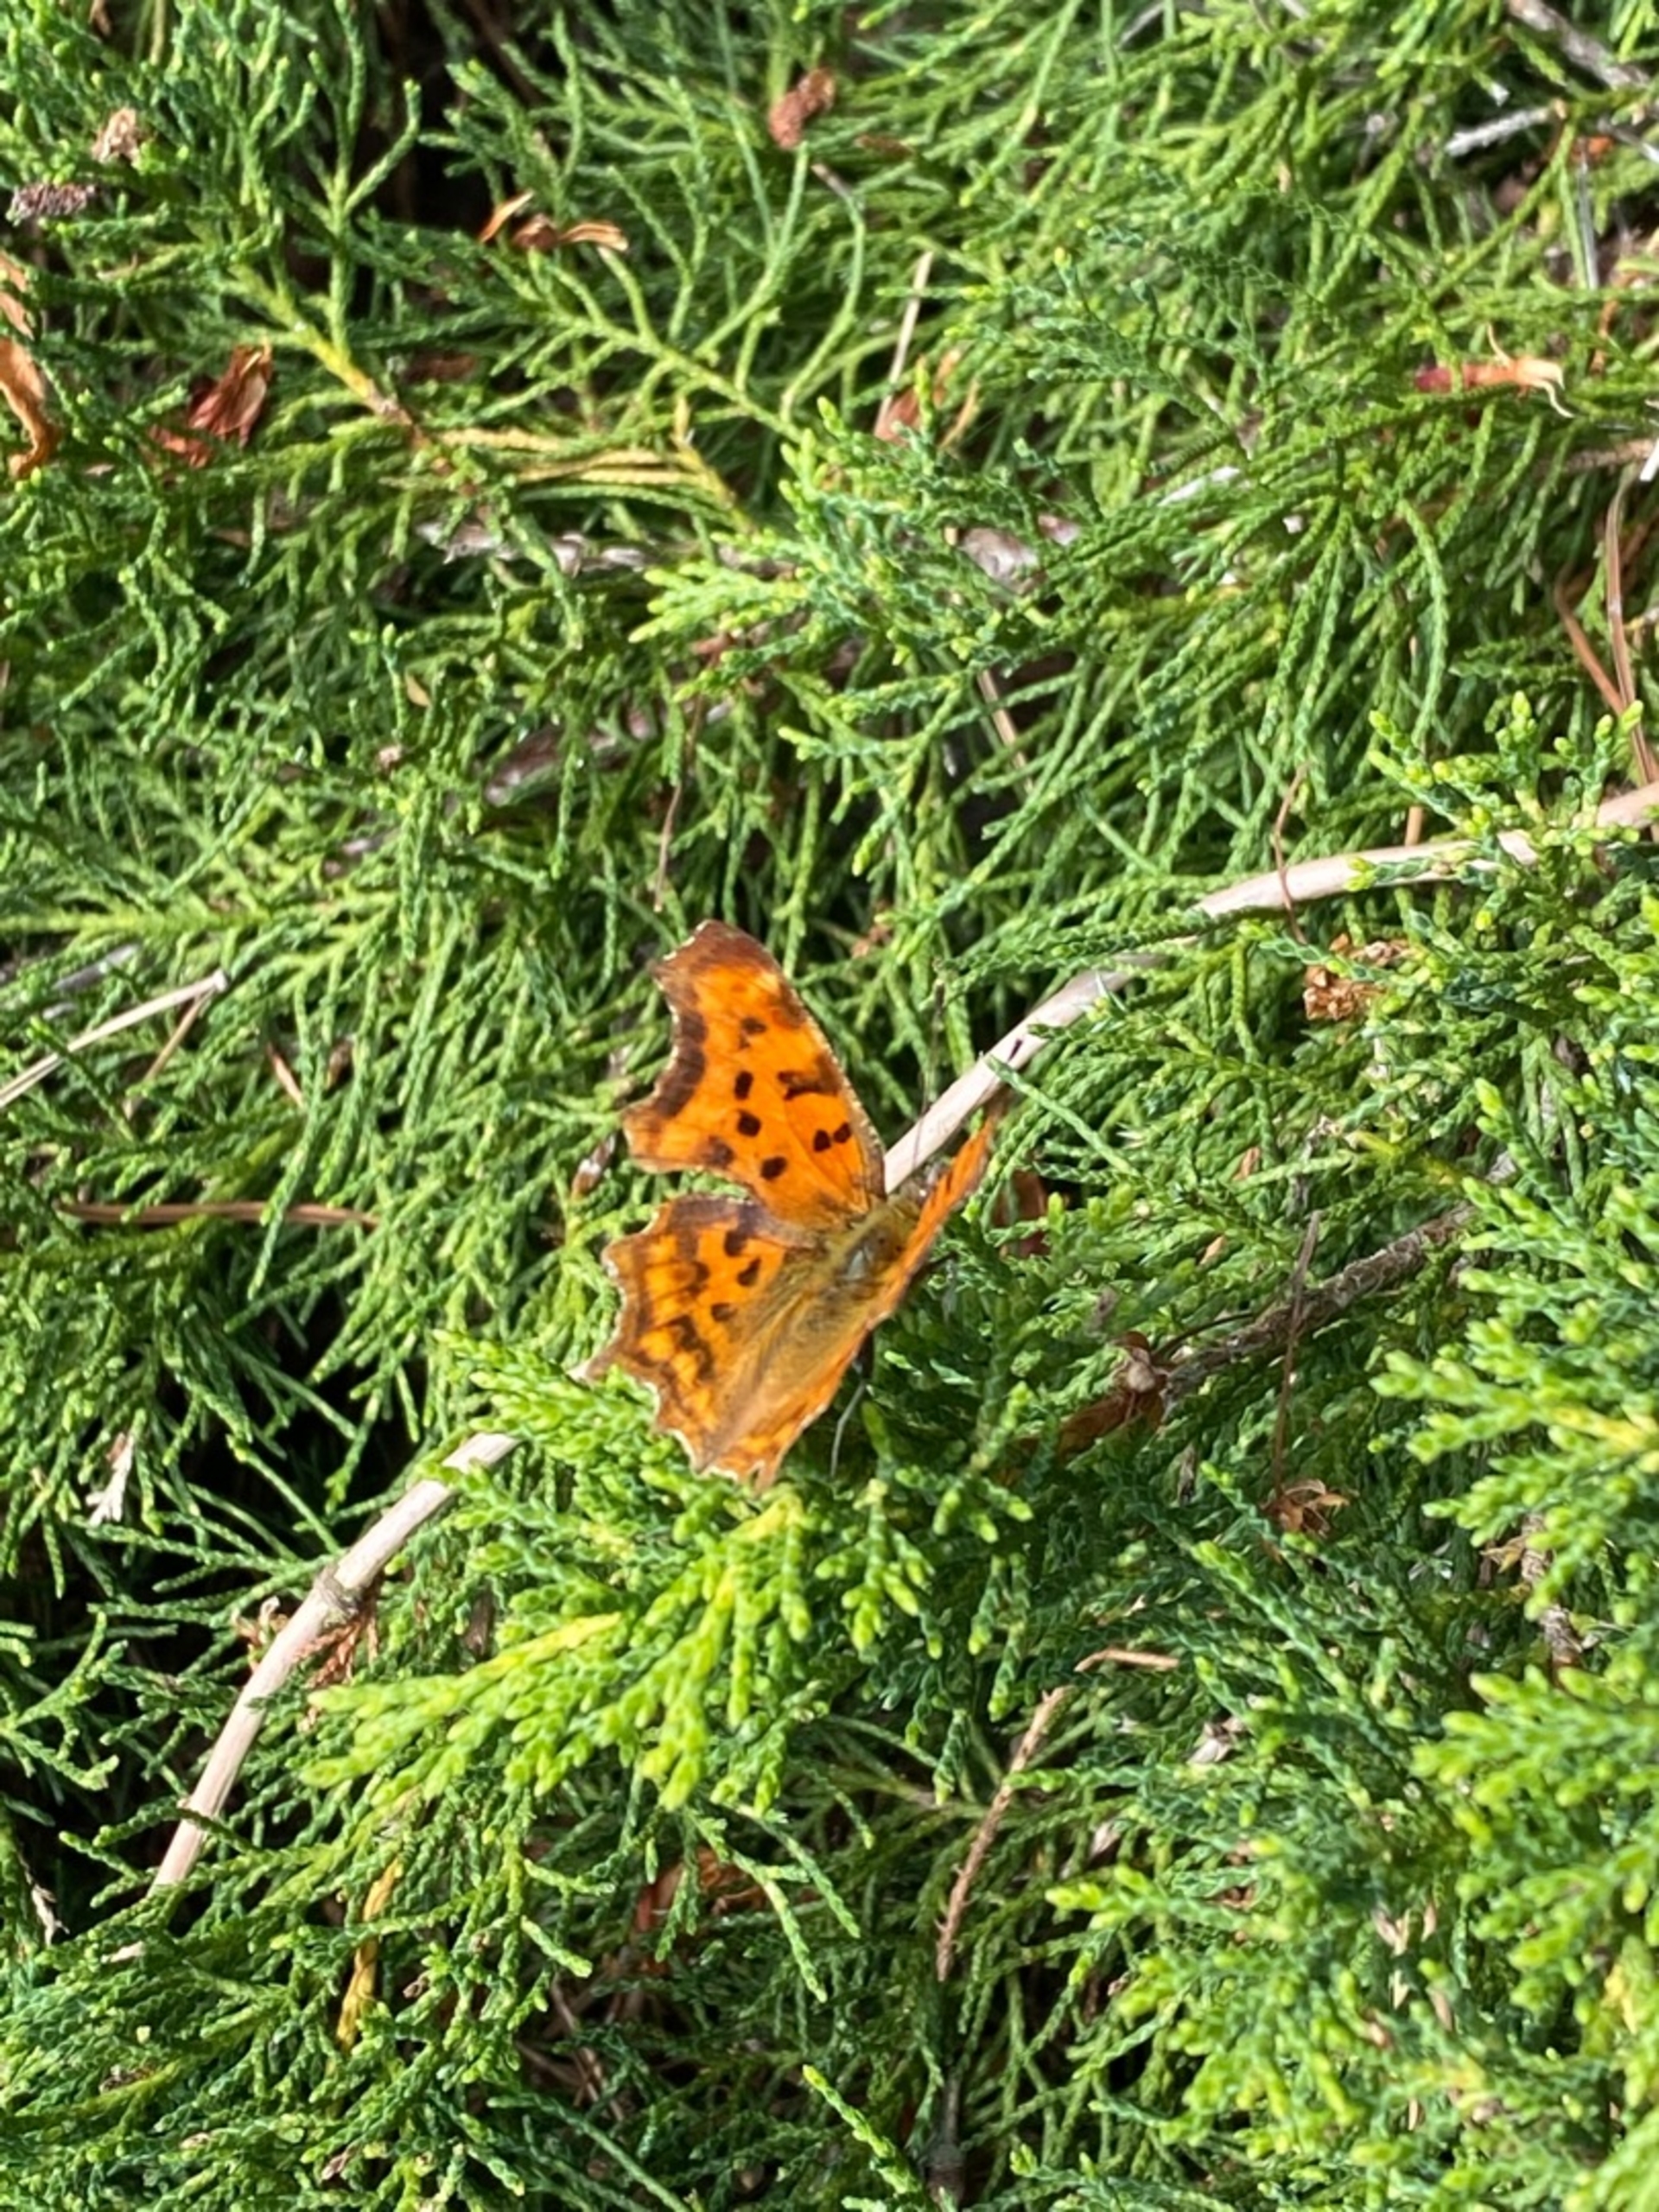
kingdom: Animalia
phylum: Arthropoda
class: Insecta
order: Lepidoptera
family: Nymphalidae
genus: Polygonia
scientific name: Polygonia c-album
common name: Det hvide C
